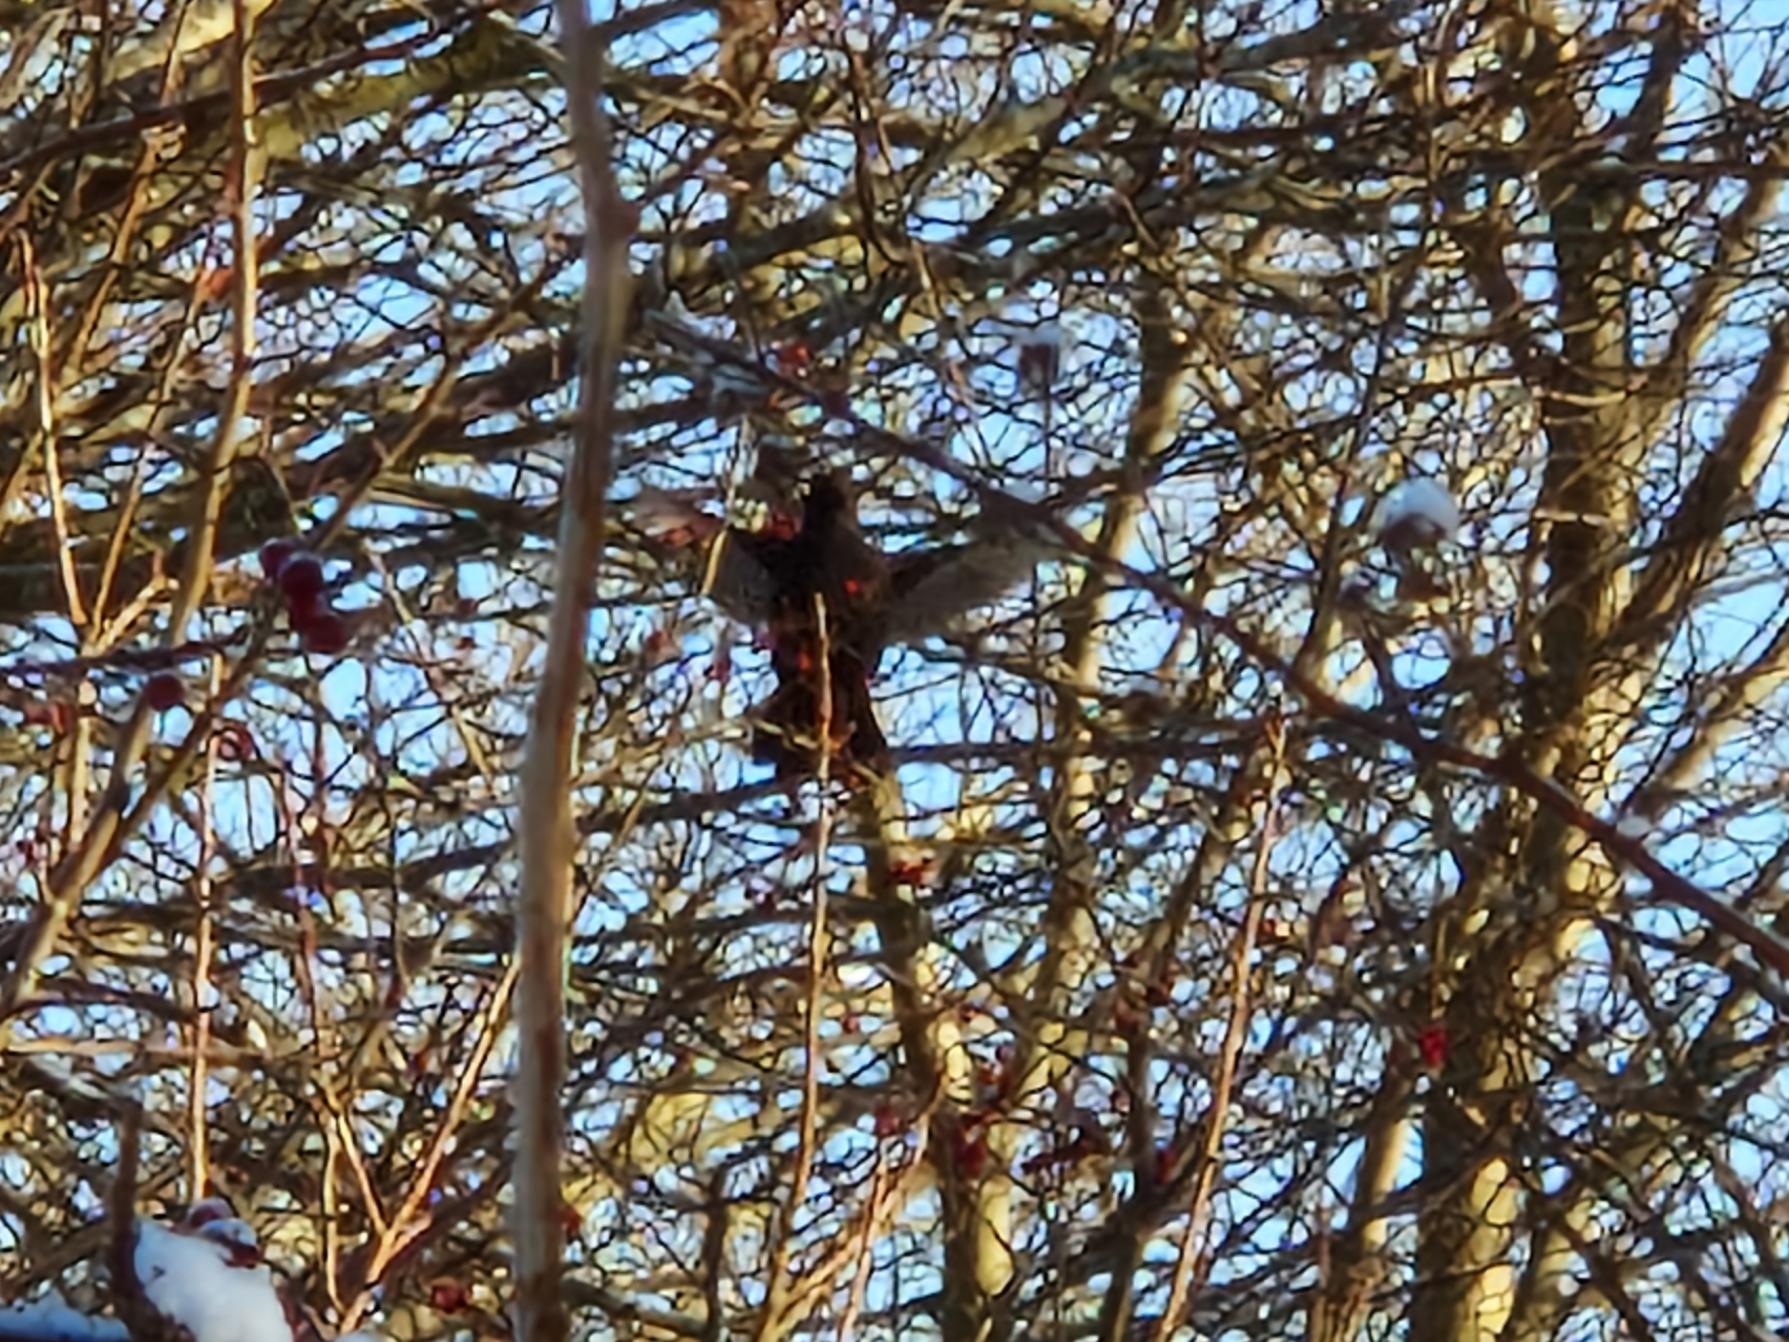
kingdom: Animalia
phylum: Chordata
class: Aves
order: Passeriformes
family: Turdidae
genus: Turdus
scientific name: Turdus merula
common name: Solsort
